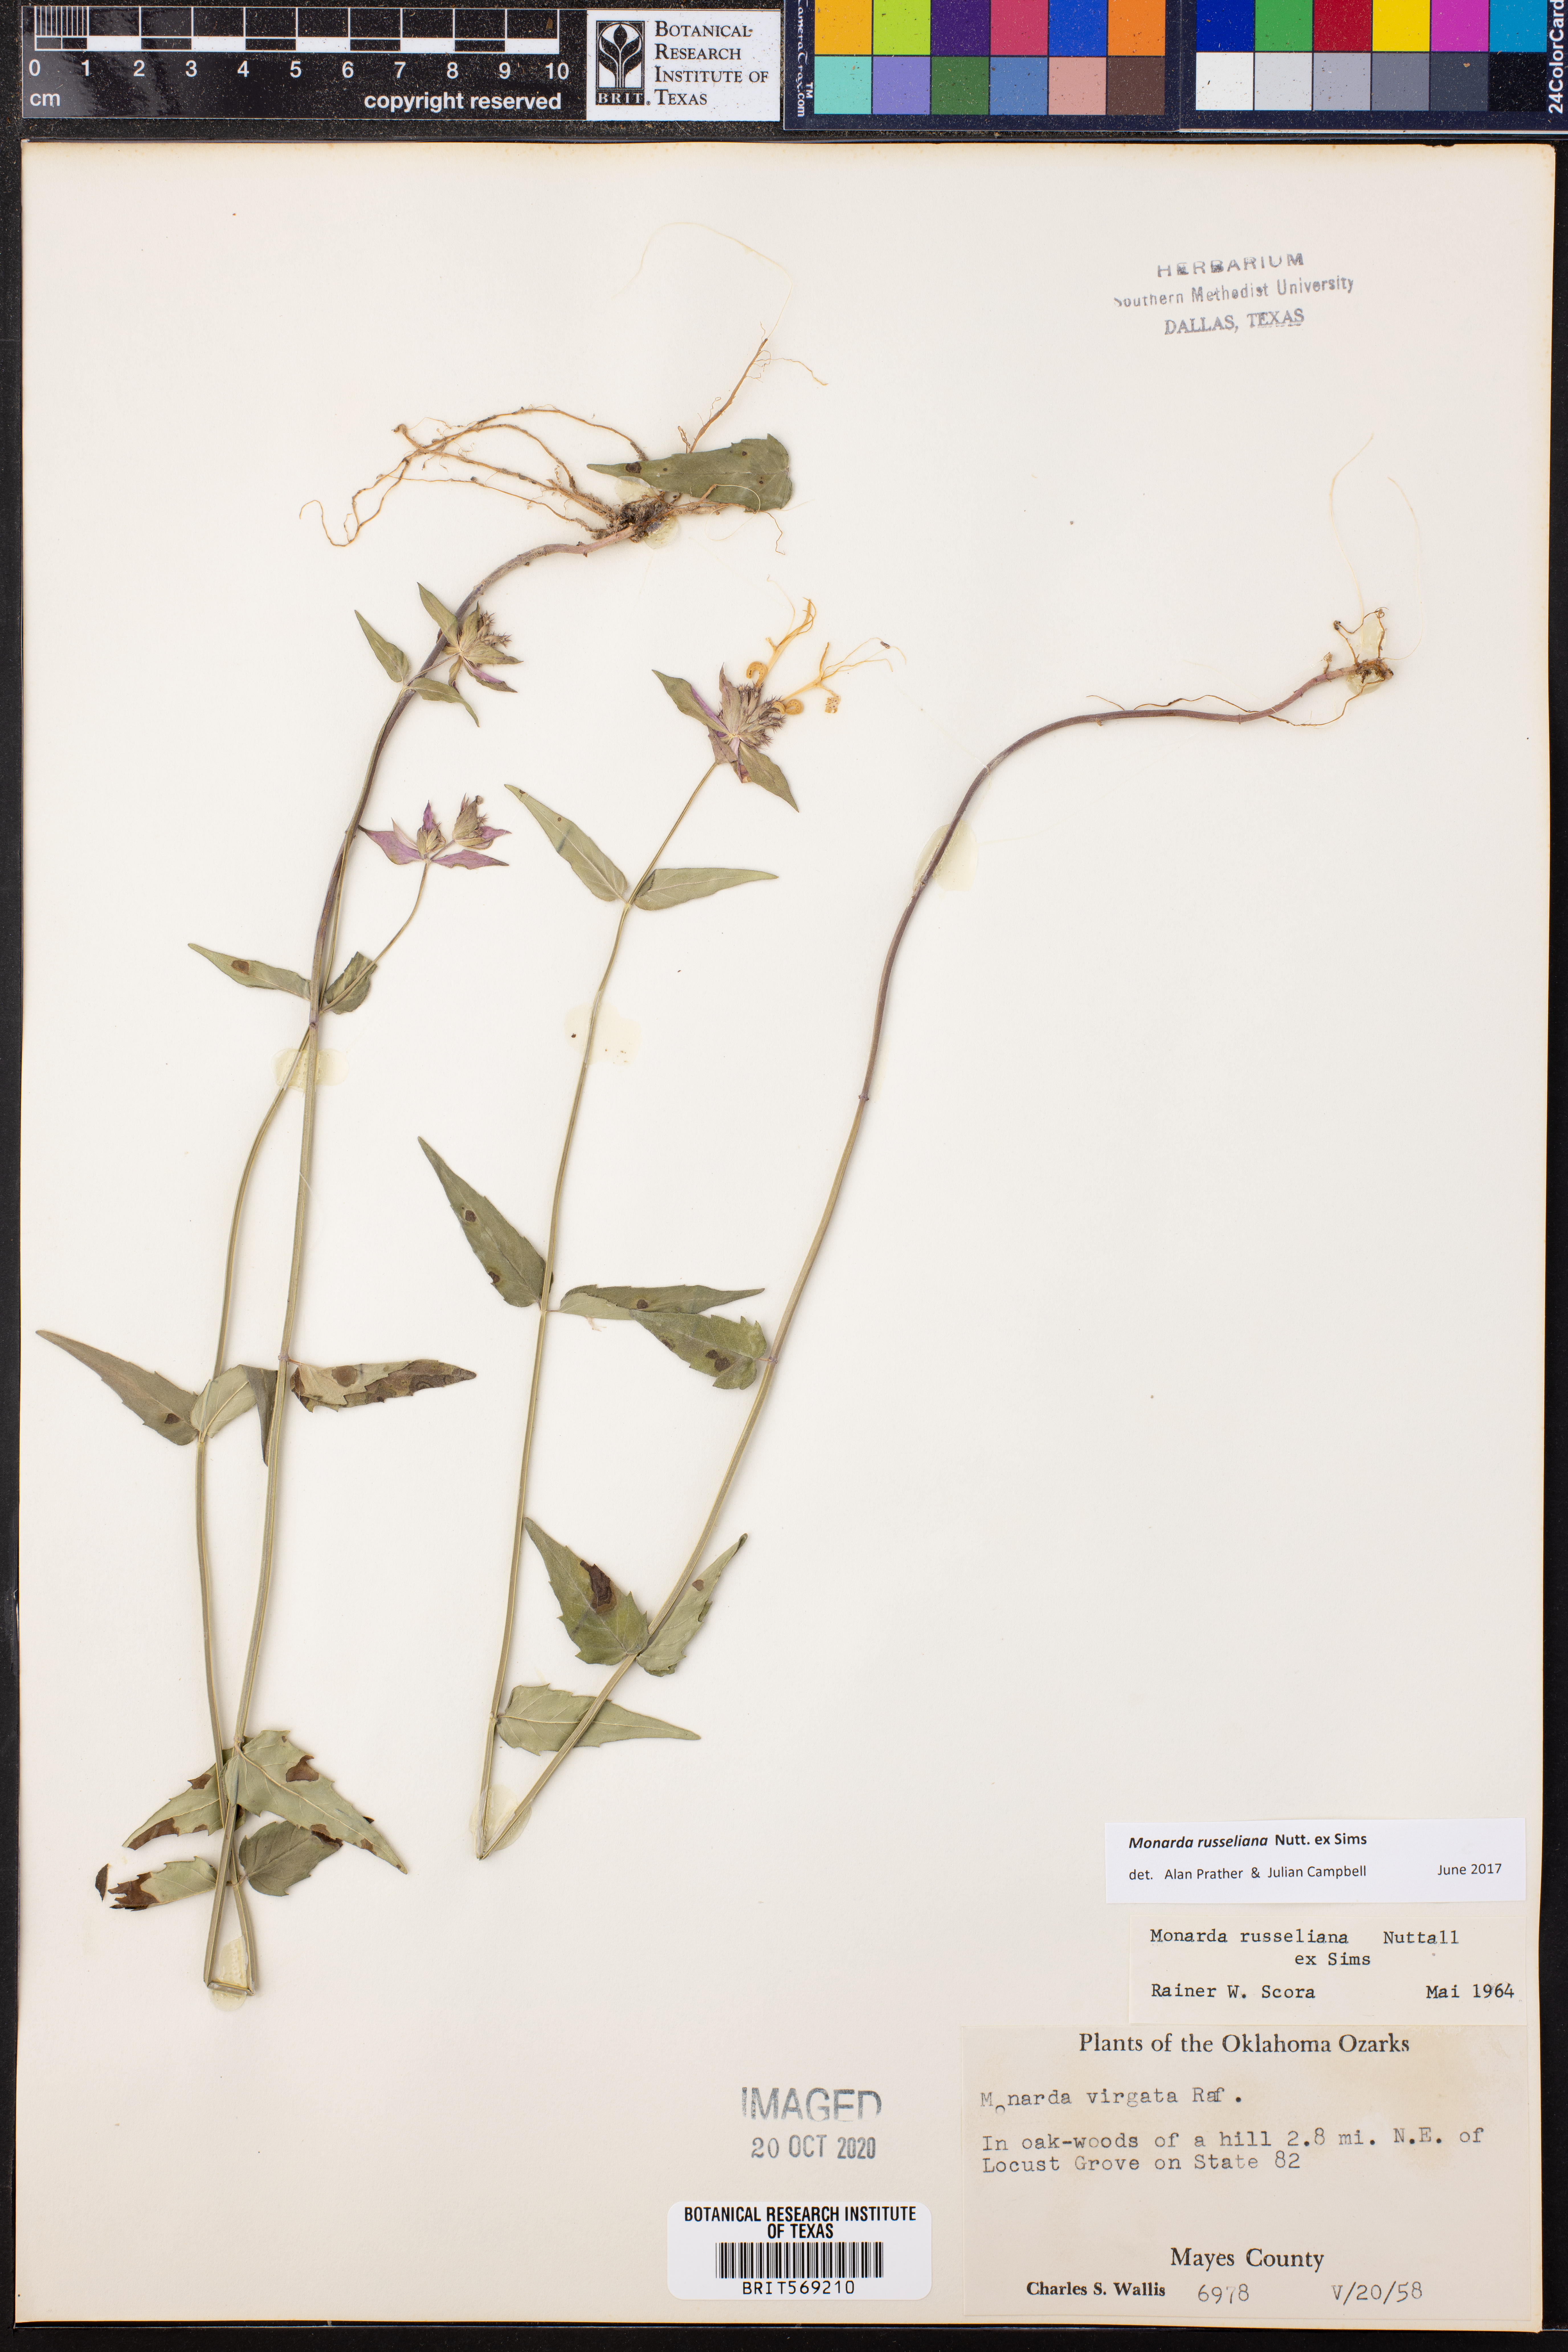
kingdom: Plantae
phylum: Tracheophyta
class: Magnoliopsida
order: Lamiales
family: Lamiaceae
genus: Monarda
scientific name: Monarda russeliana
